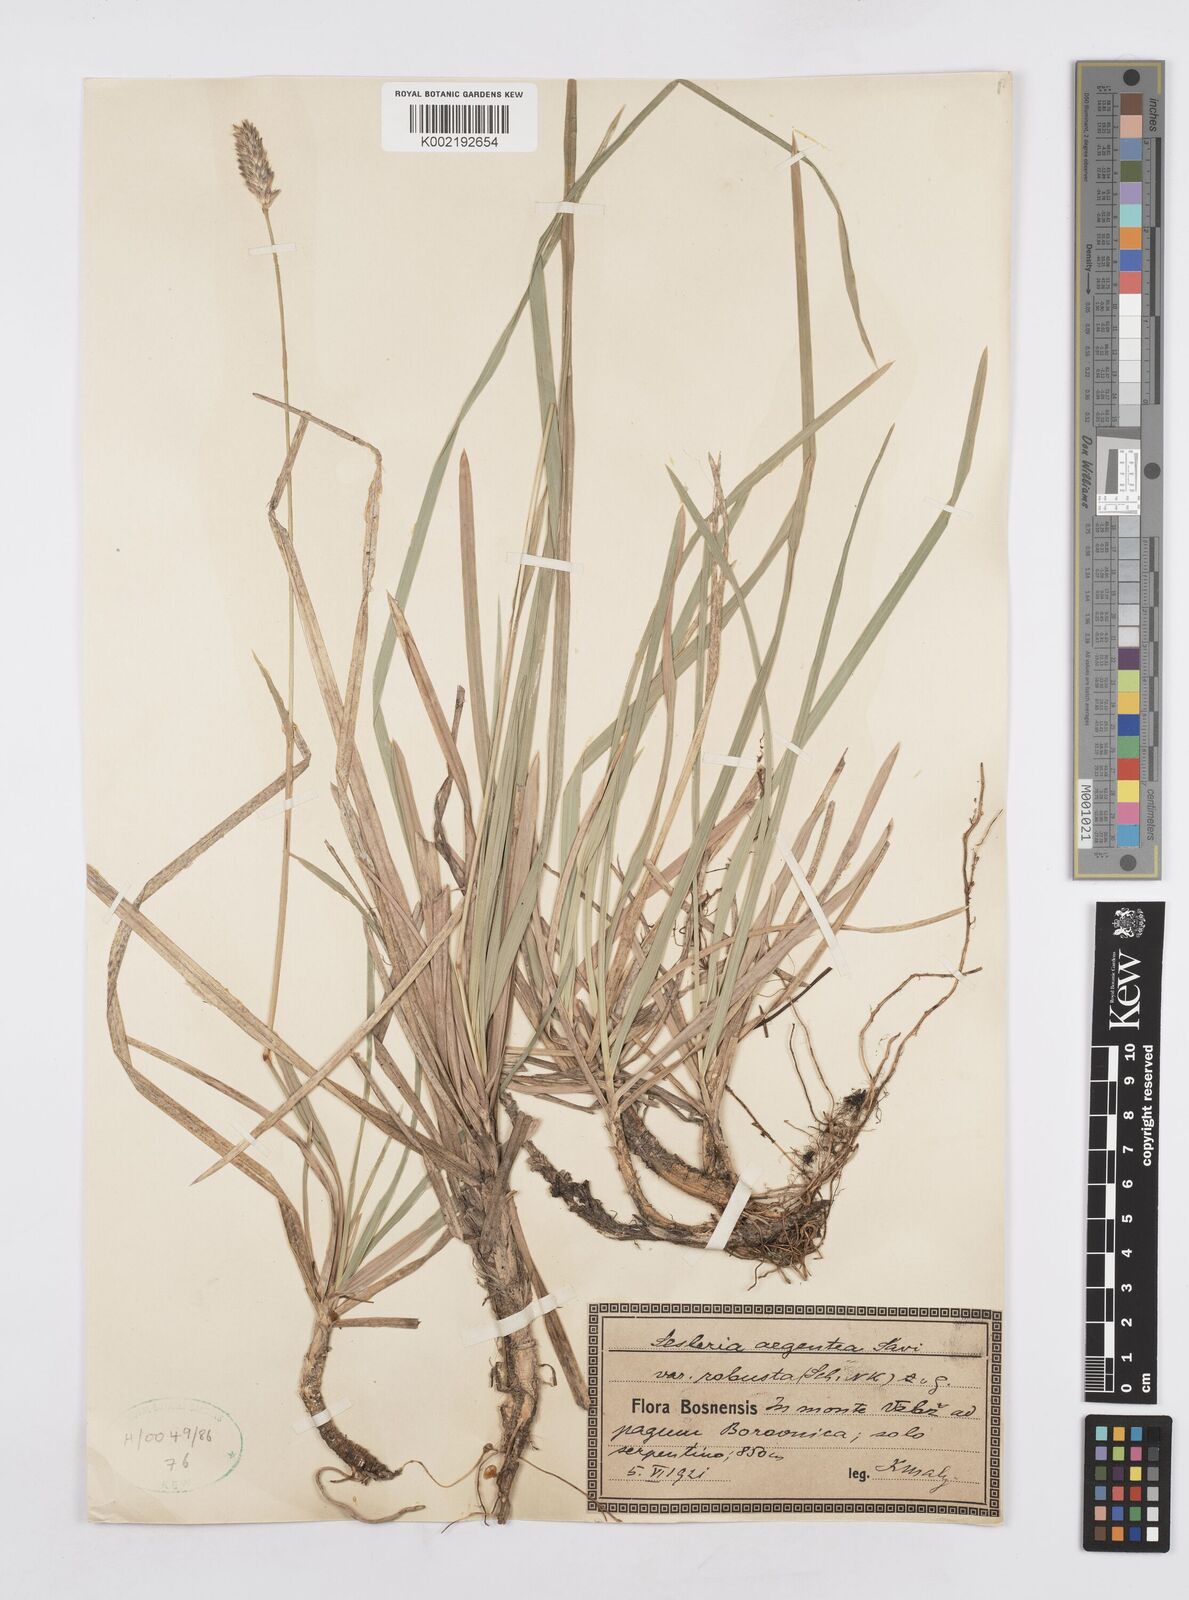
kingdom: Plantae
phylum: Tracheophyta
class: Liliopsida
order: Poales
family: Poaceae
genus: Sesleria
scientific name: Sesleria robusta
